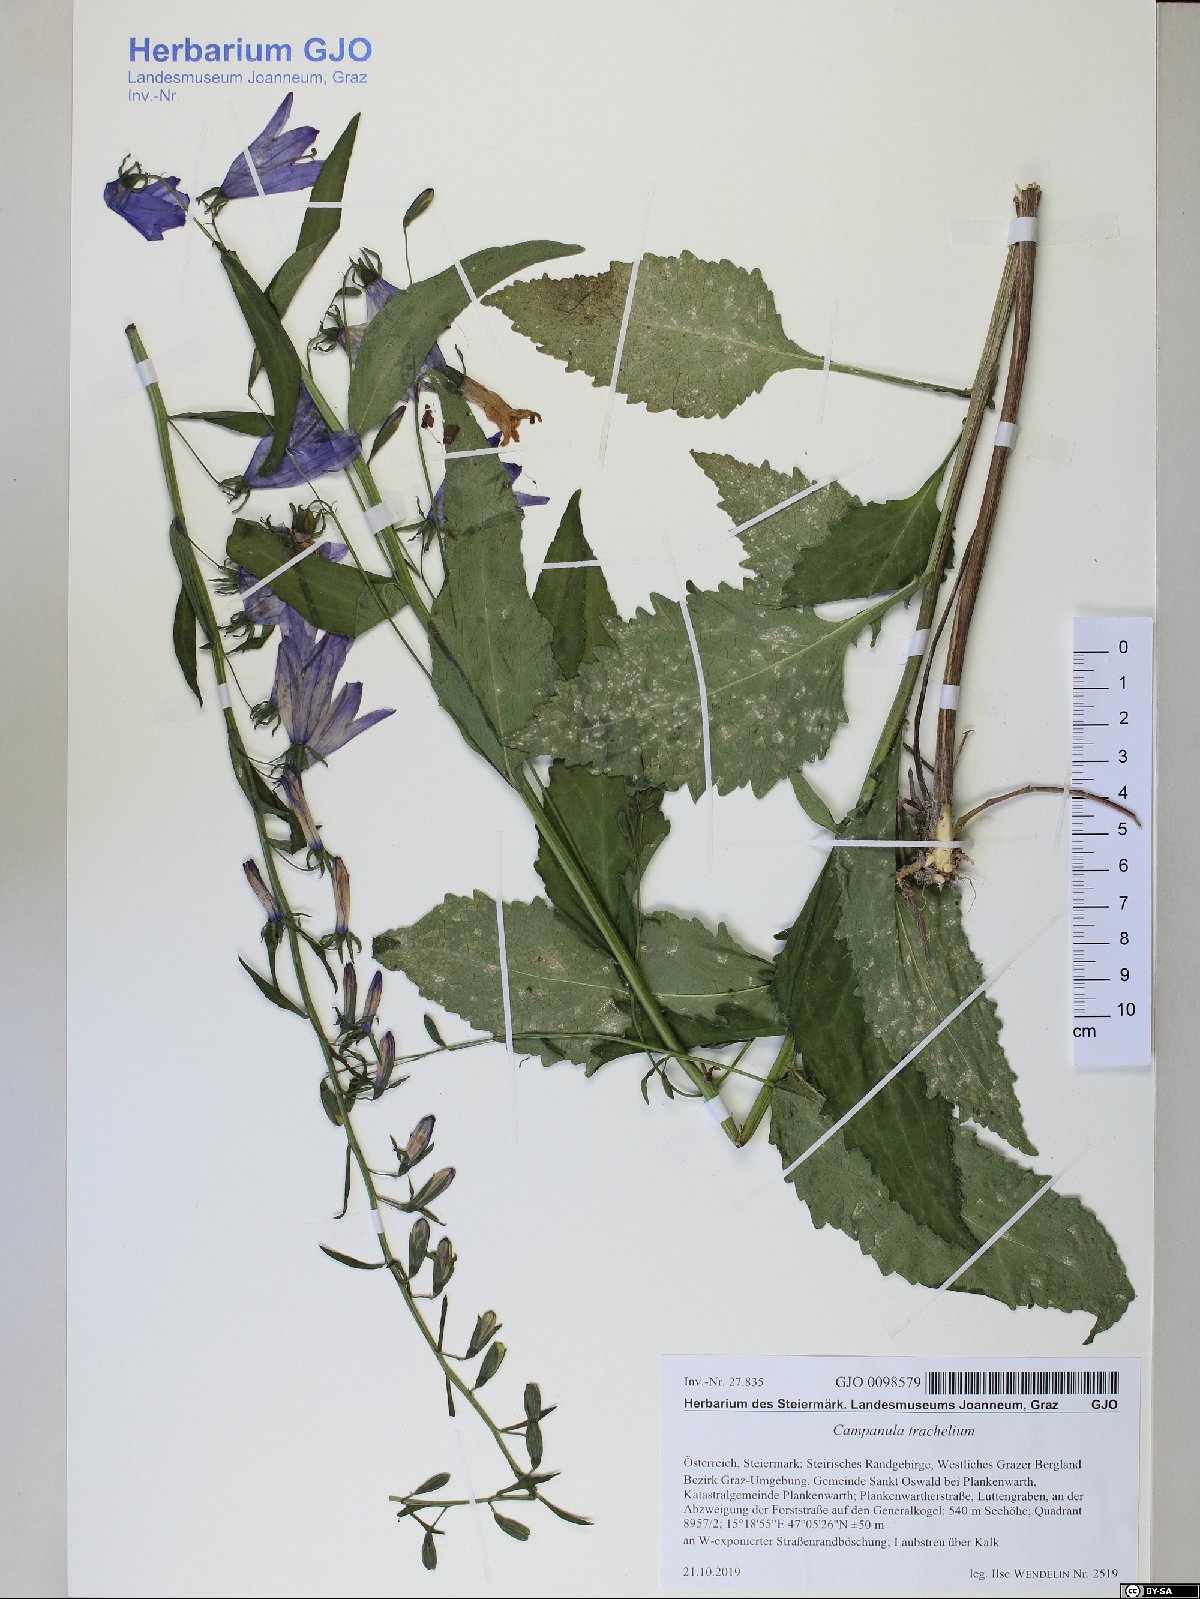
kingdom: Plantae
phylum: Tracheophyta
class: Magnoliopsida
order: Asterales
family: Campanulaceae
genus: Campanula
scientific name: Campanula trachelium
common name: Nettle-leaved bellflower
